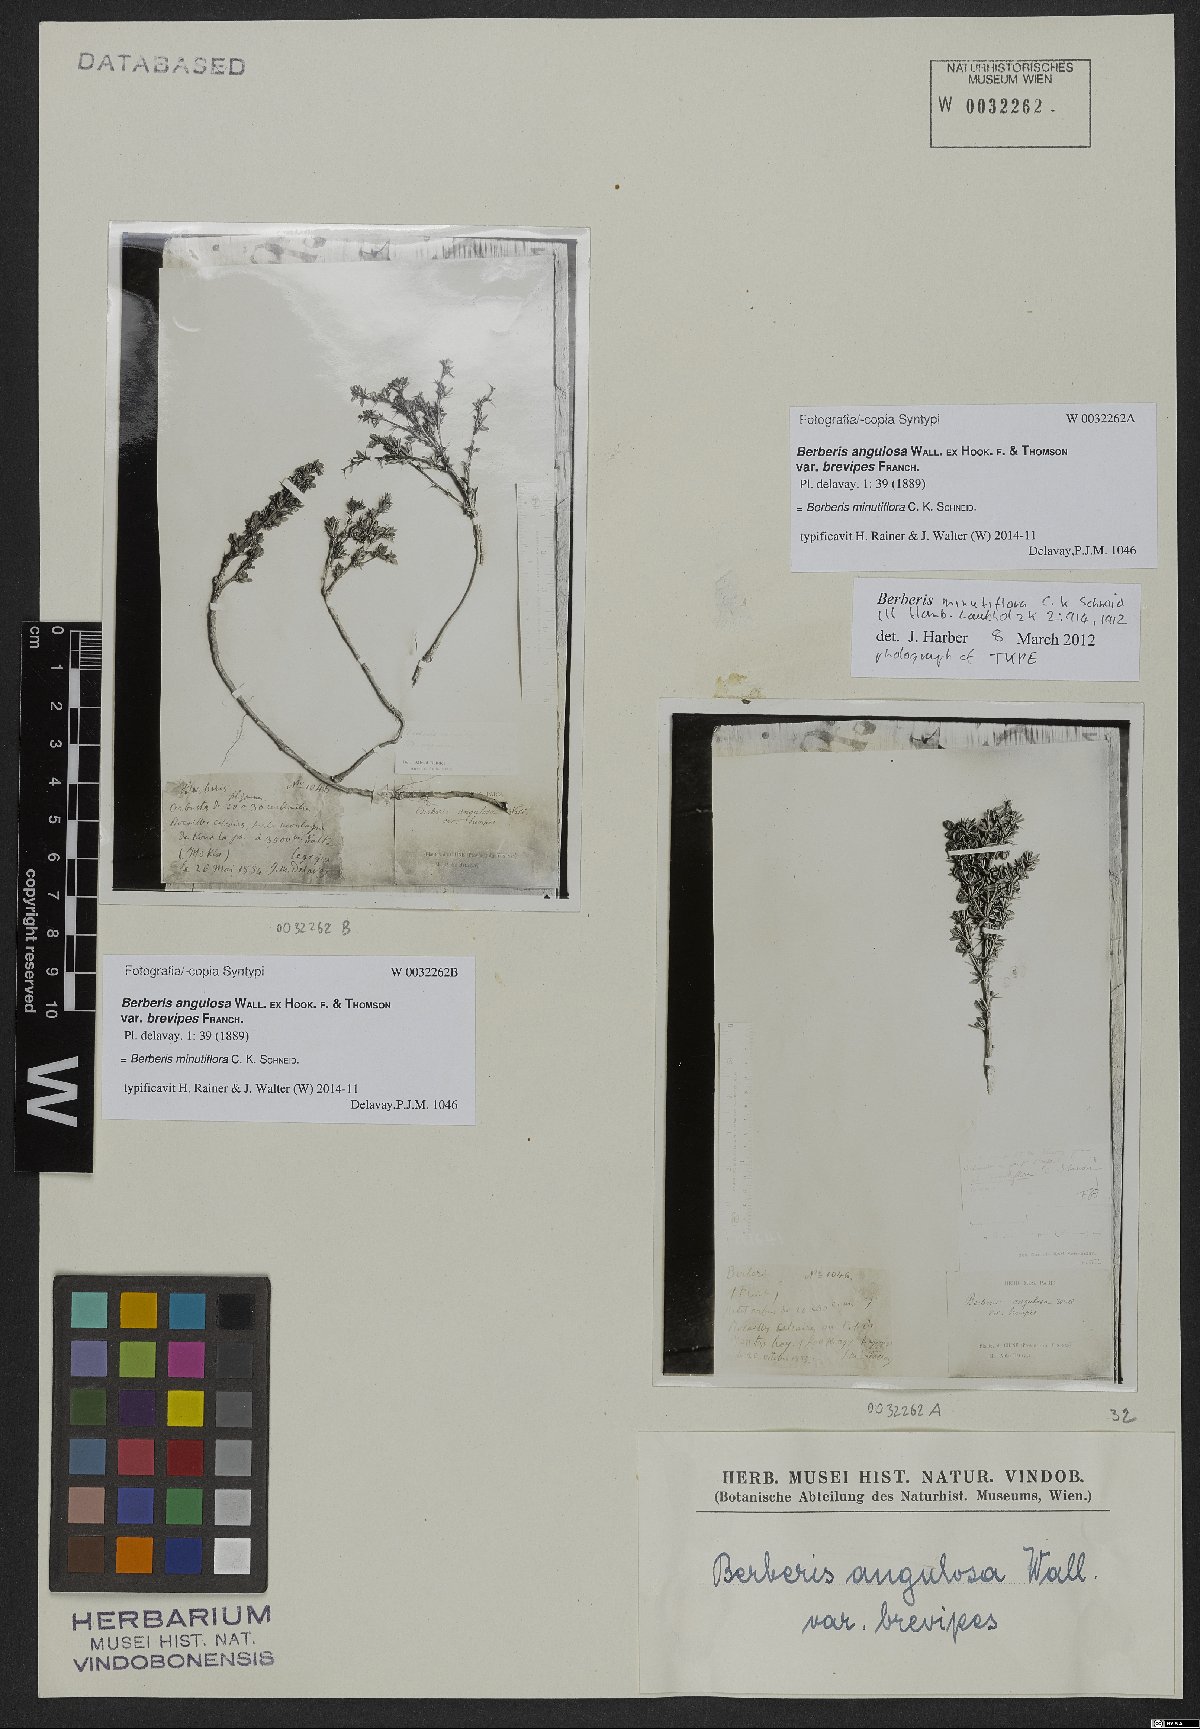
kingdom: Plantae
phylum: Tracheophyta
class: Magnoliopsida
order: Ranunculales
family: Berberidaceae
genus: Berberis
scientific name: Berberis minutiflora
